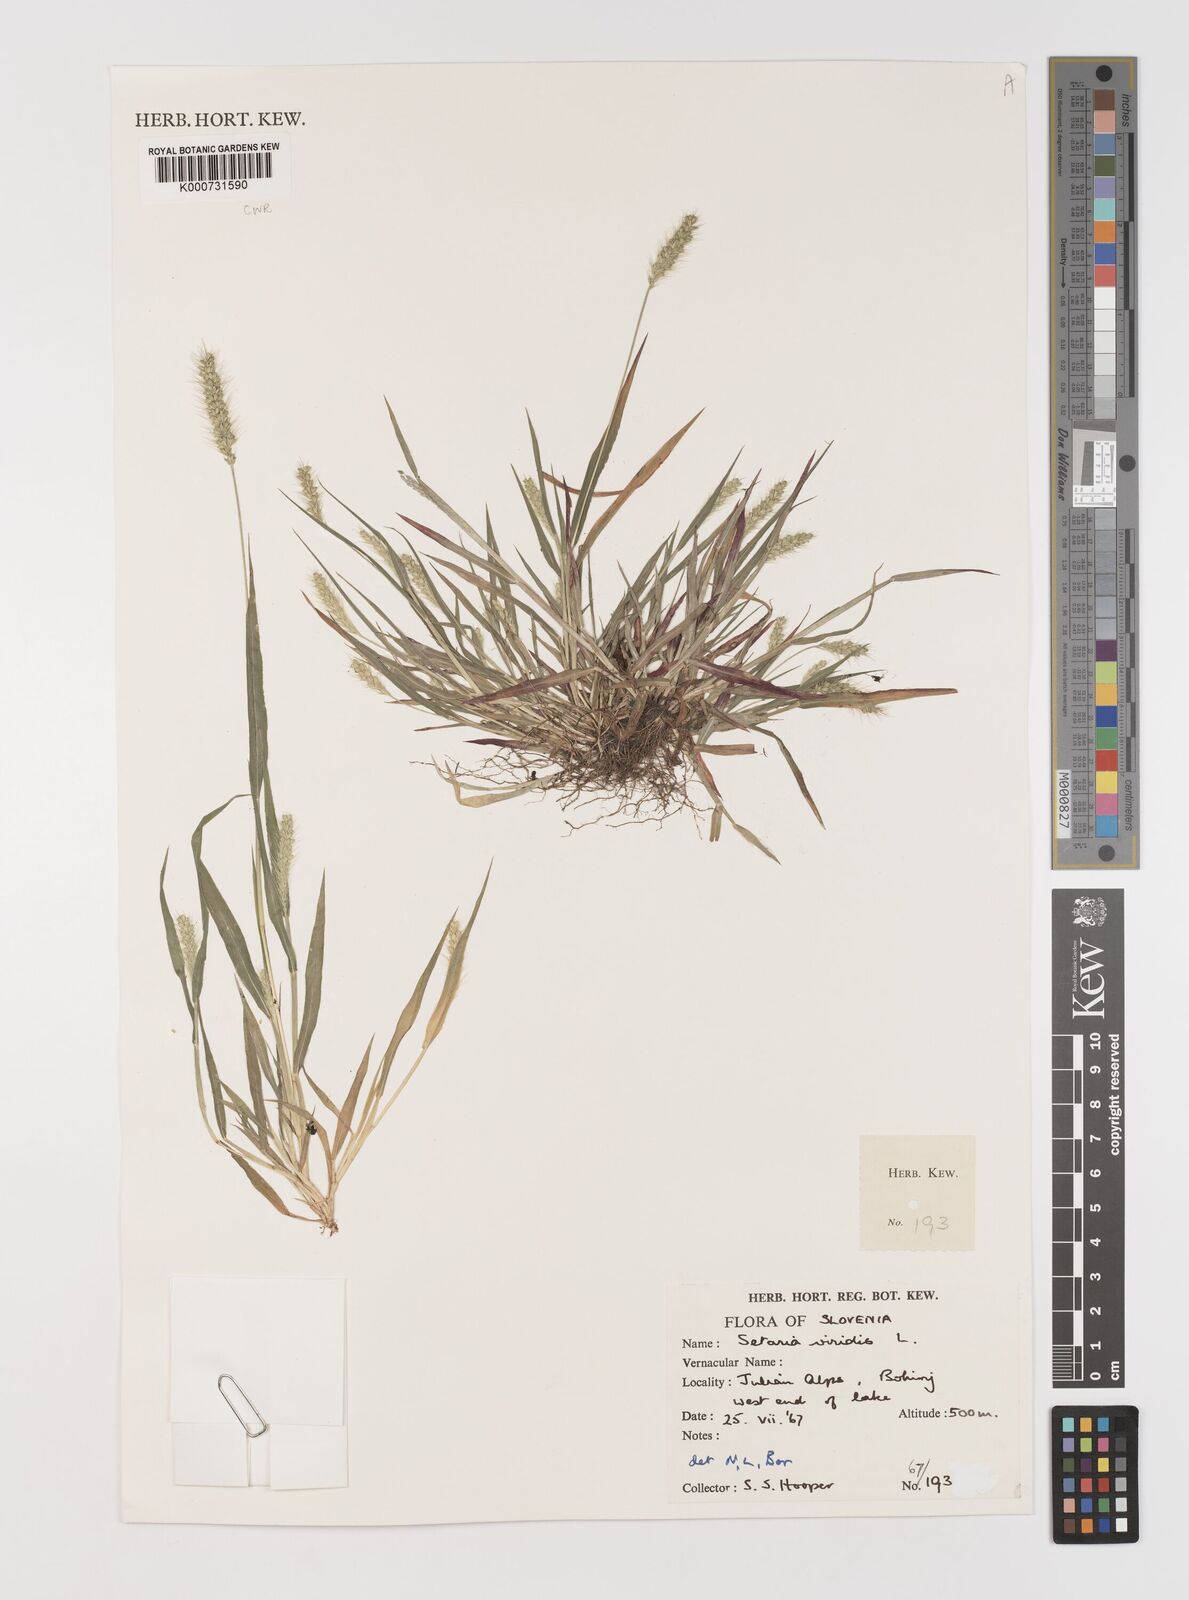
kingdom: Plantae
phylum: Tracheophyta
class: Liliopsida
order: Poales
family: Poaceae
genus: Setaria
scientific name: Setaria viridis
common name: Green bristlegrass
